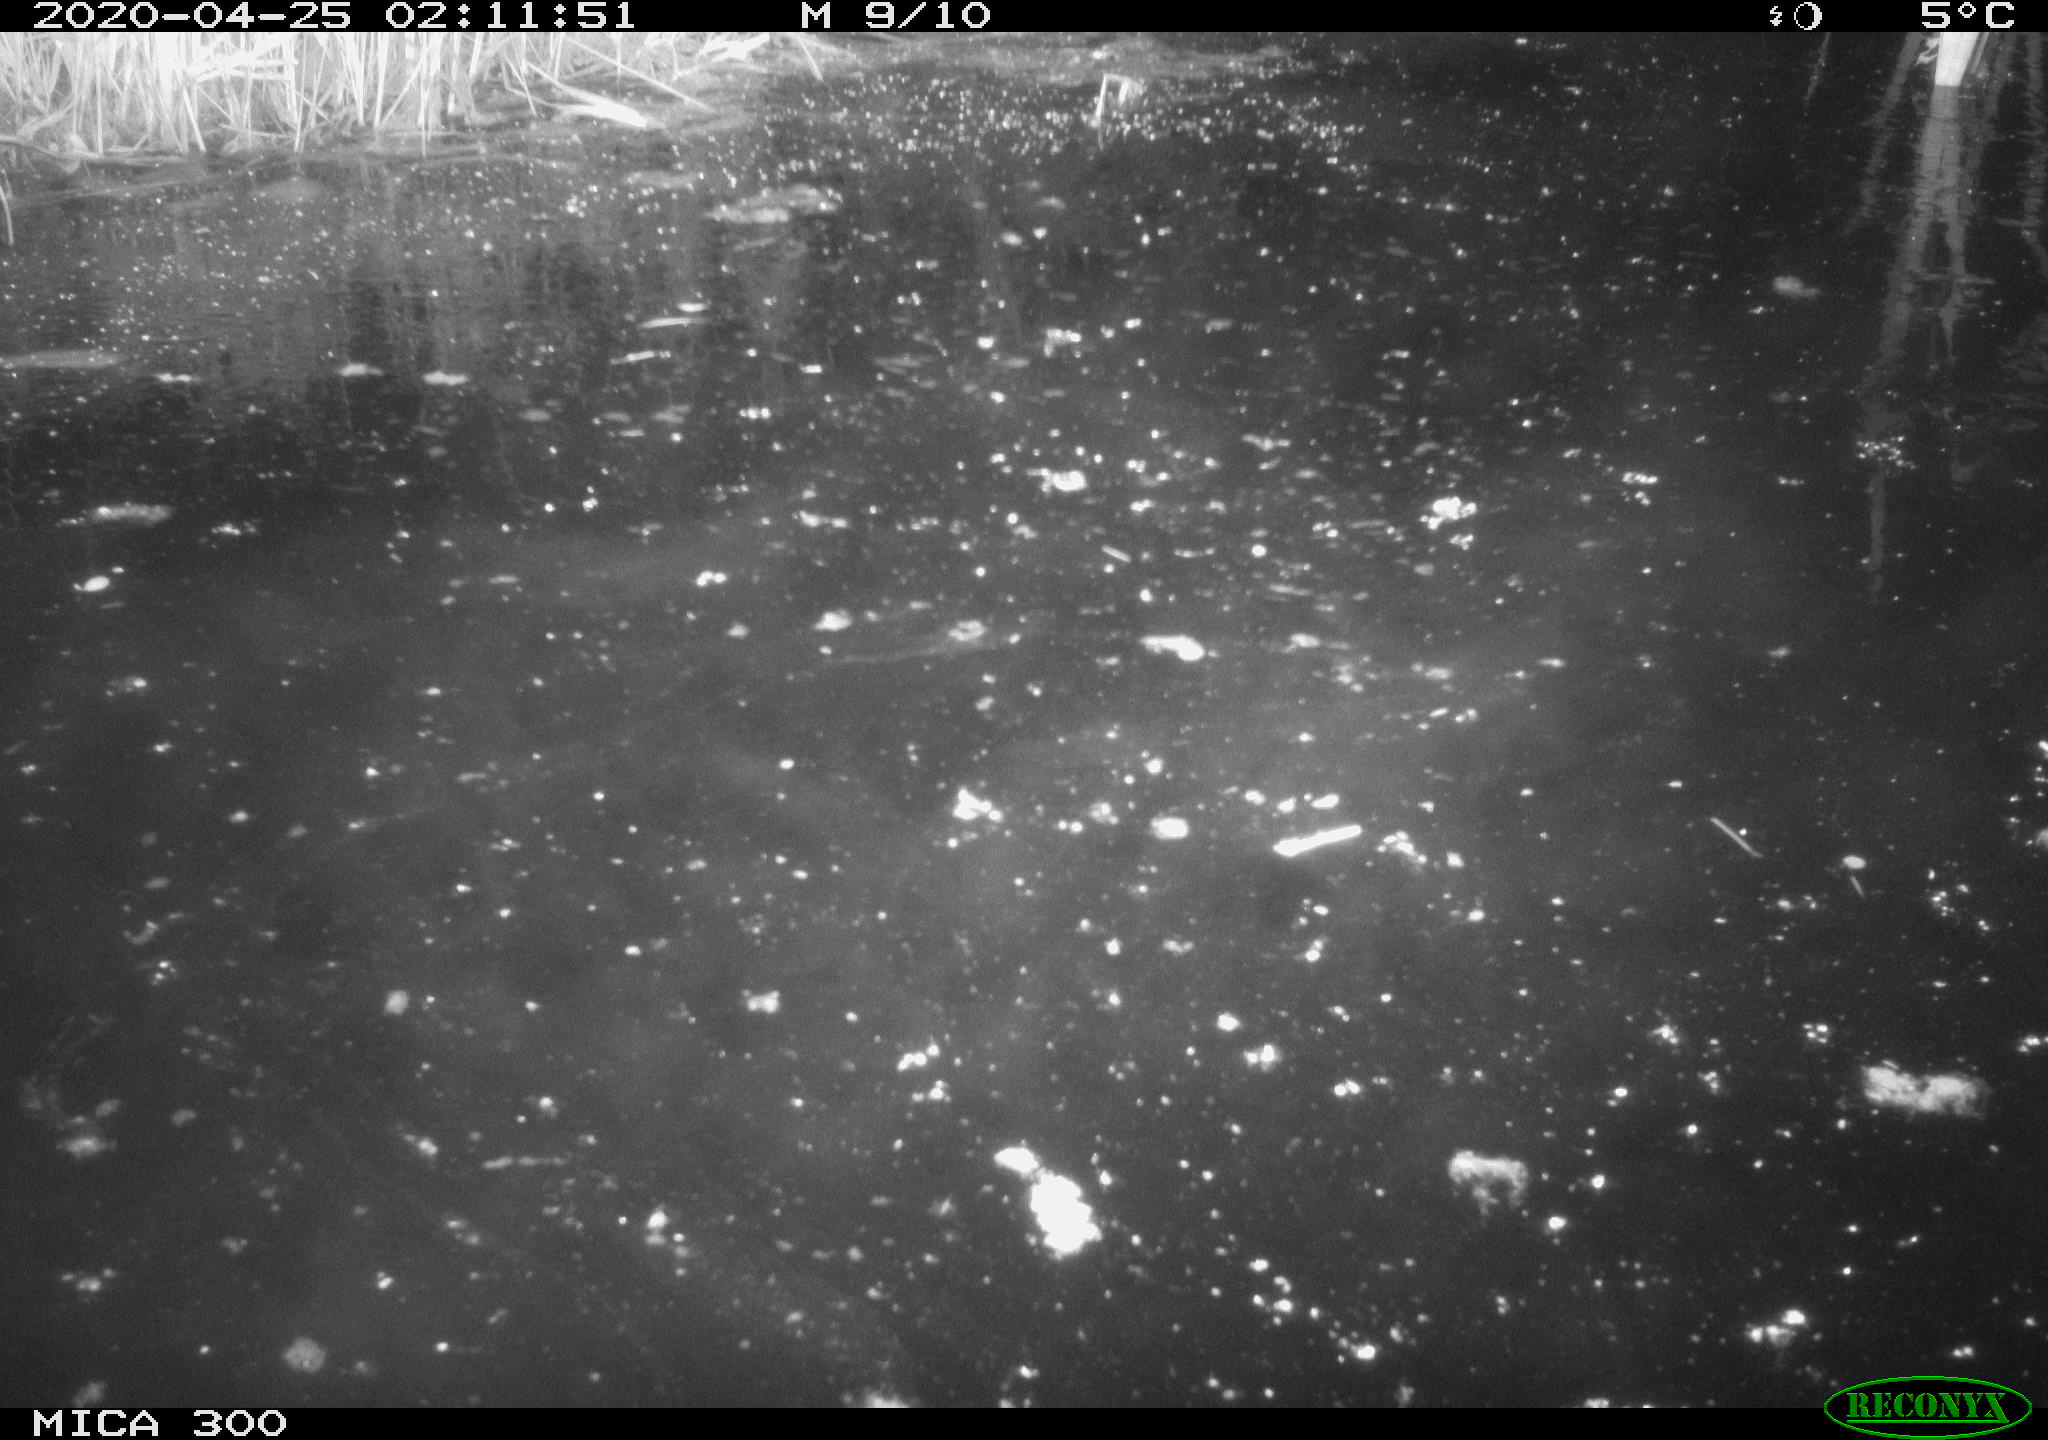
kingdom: Animalia
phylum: Chordata
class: Mammalia
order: Rodentia
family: Castoridae
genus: Castor
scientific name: Castor fiber
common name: Eurasian beaver
